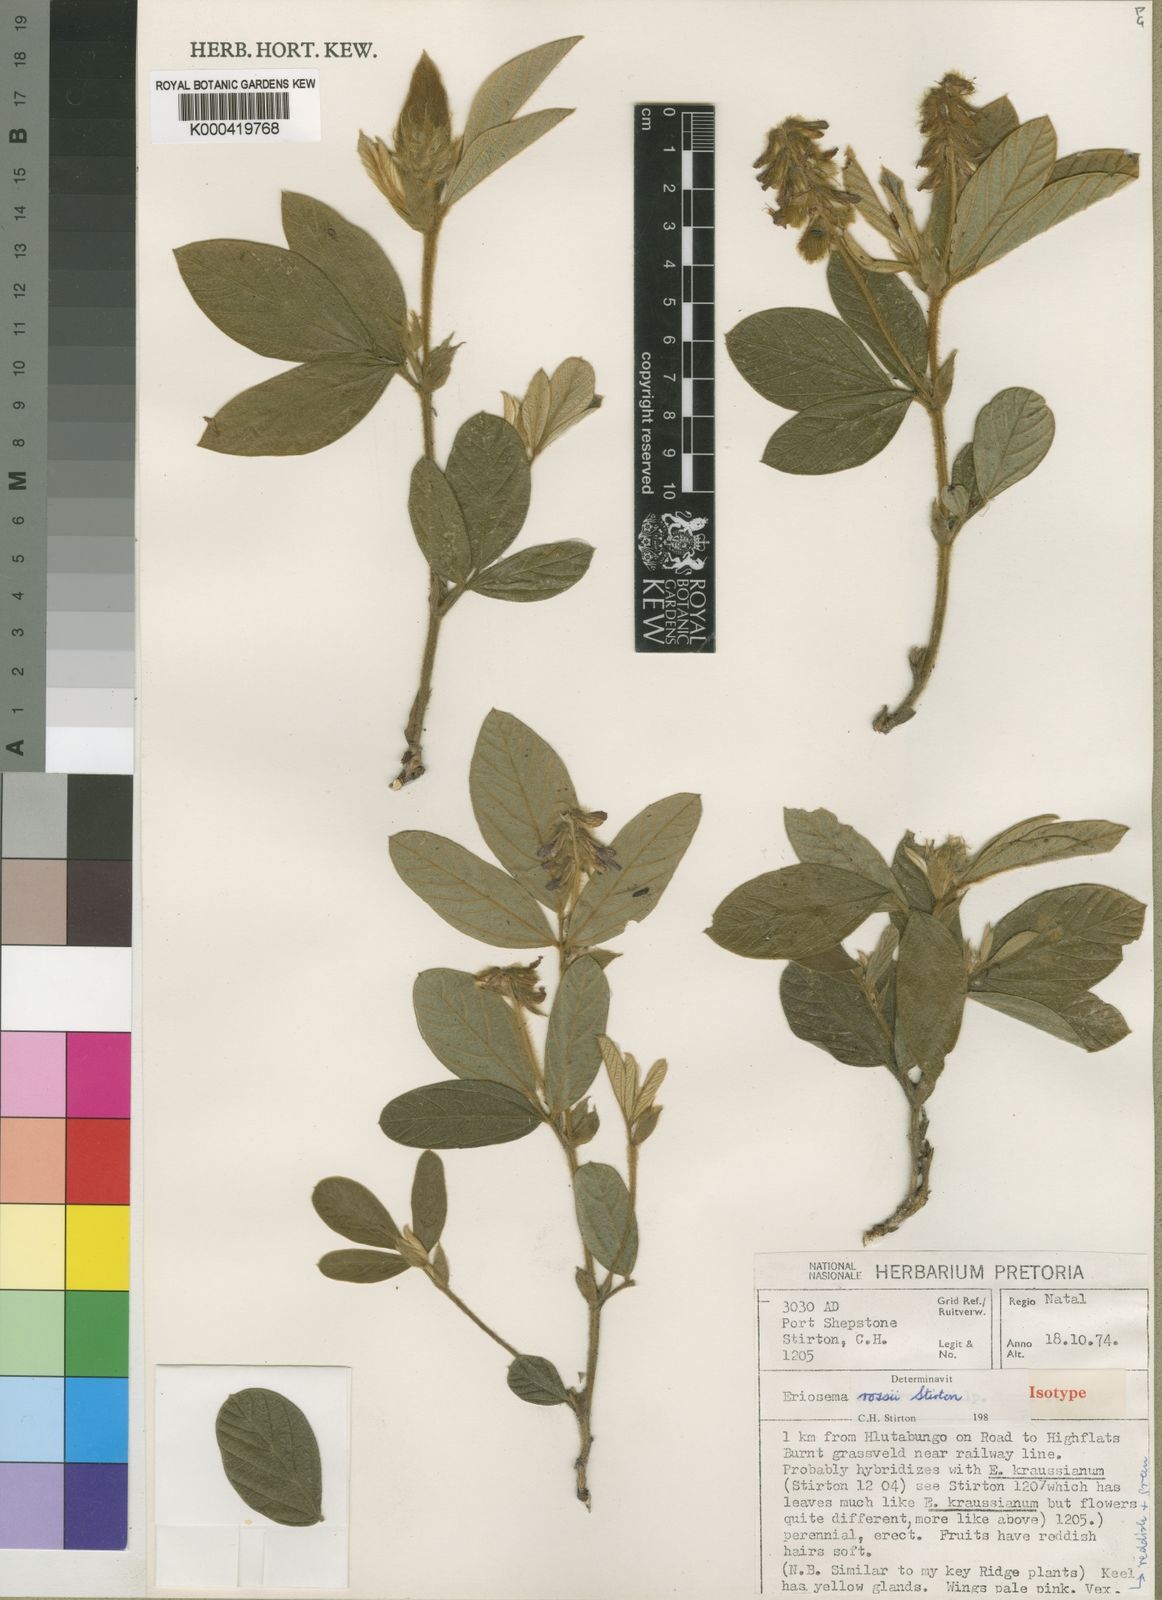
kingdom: Plantae
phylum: Tracheophyta
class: Magnoliopsida
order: Fabales
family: Fabaceae
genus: Eriosema
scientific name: Eriosema rossii
